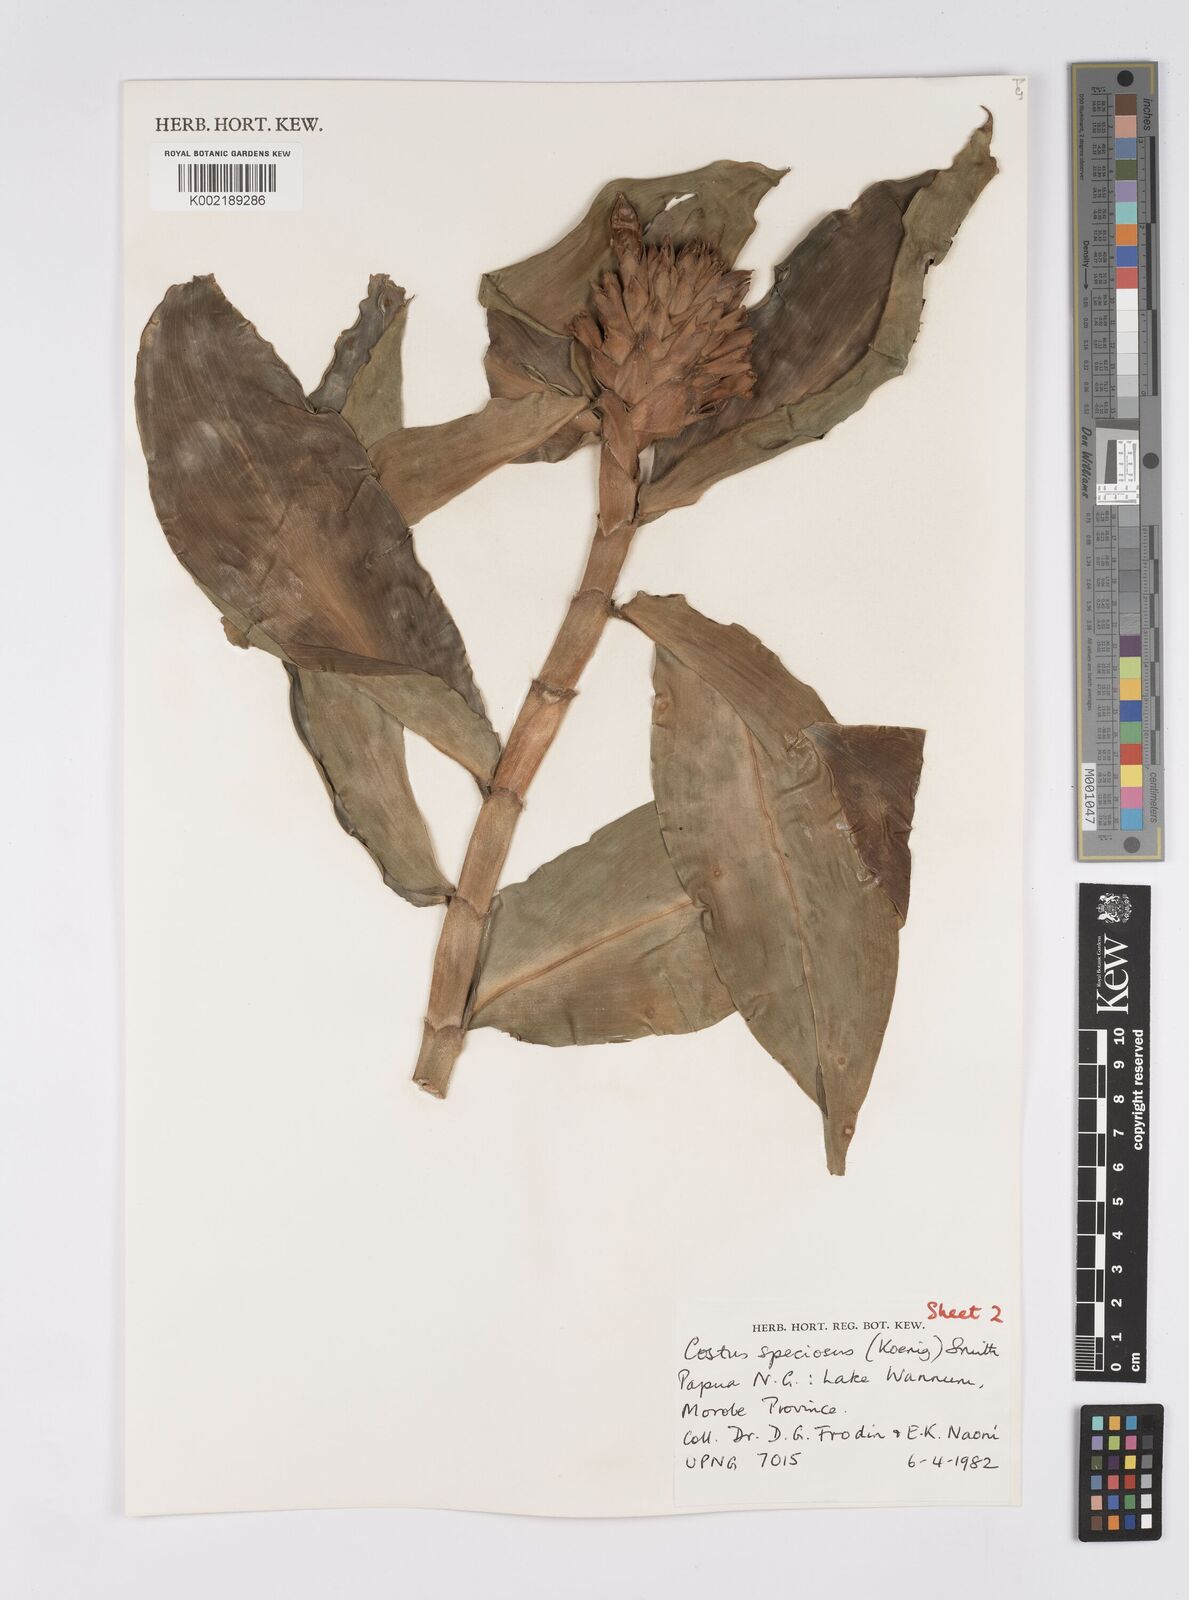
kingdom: Plantae
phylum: Tracheophyta
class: Liliopsida
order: Zingiberales
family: Costaceae
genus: Hellenia
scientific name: Hellenia speciosa
